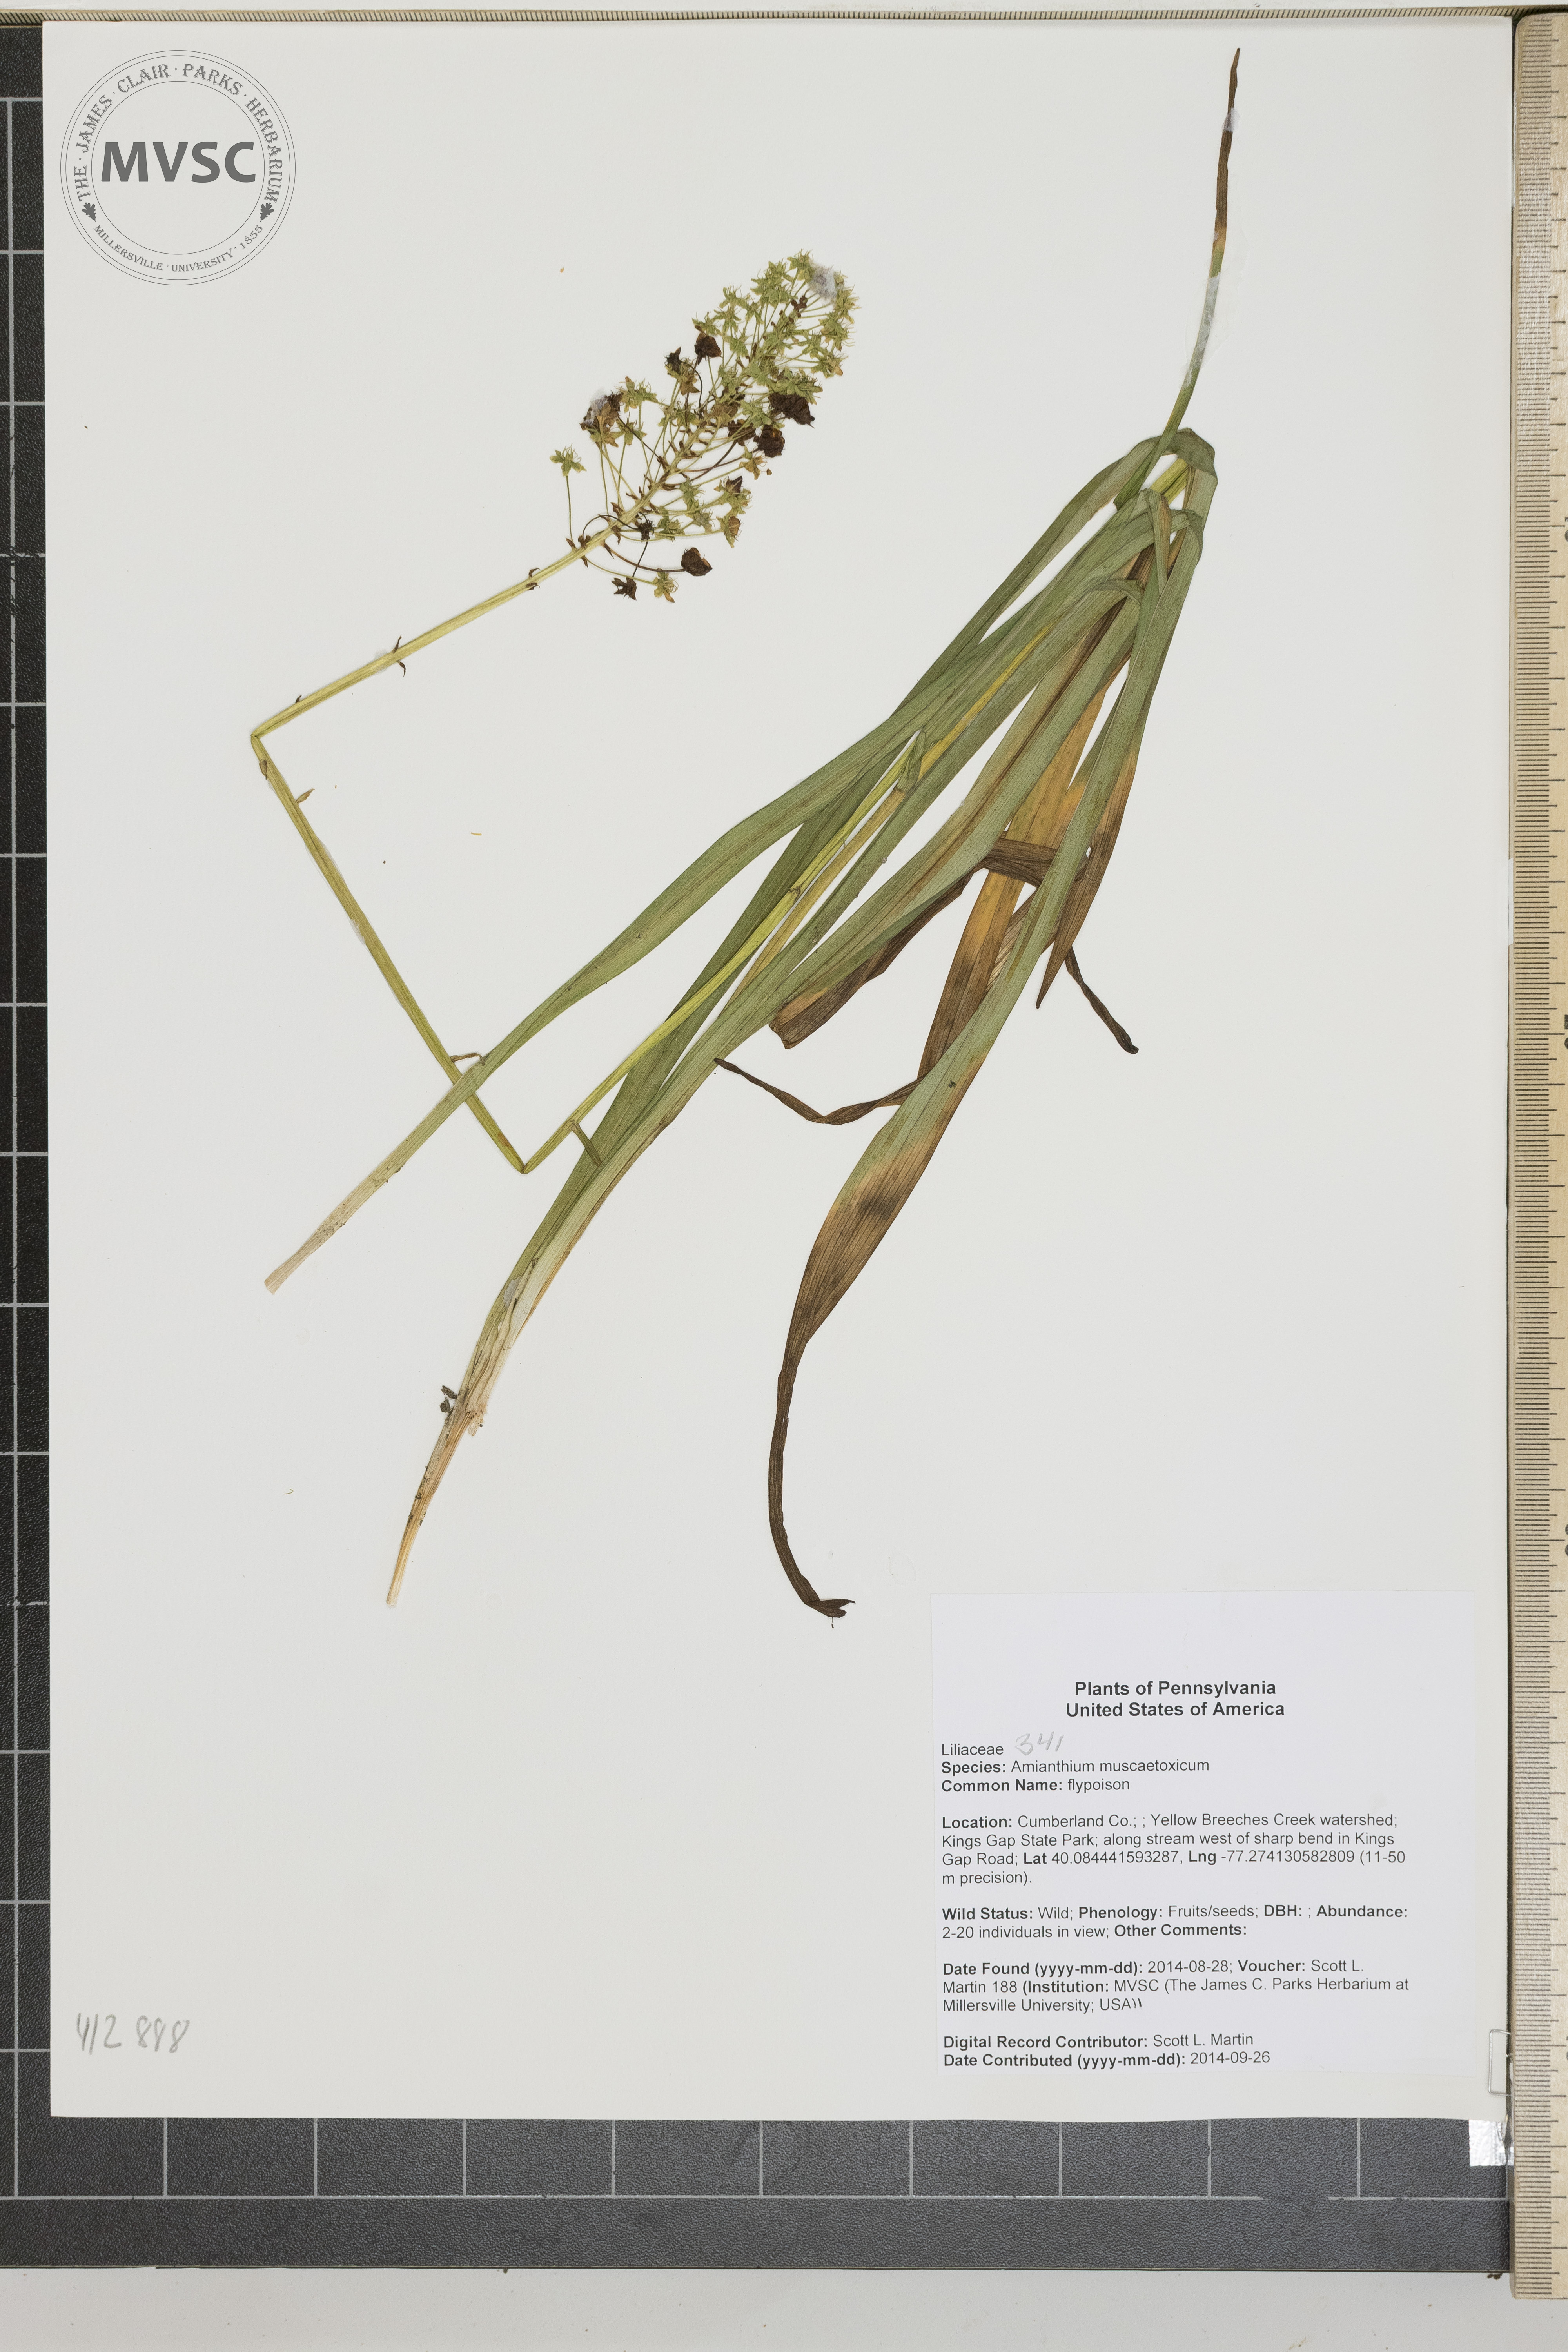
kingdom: Plantae
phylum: Tracheophyta
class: Liliopsida
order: Liliales
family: Melanthiaceae
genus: Amianthium
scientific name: Amianthium muscitoxicum
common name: flypoison
